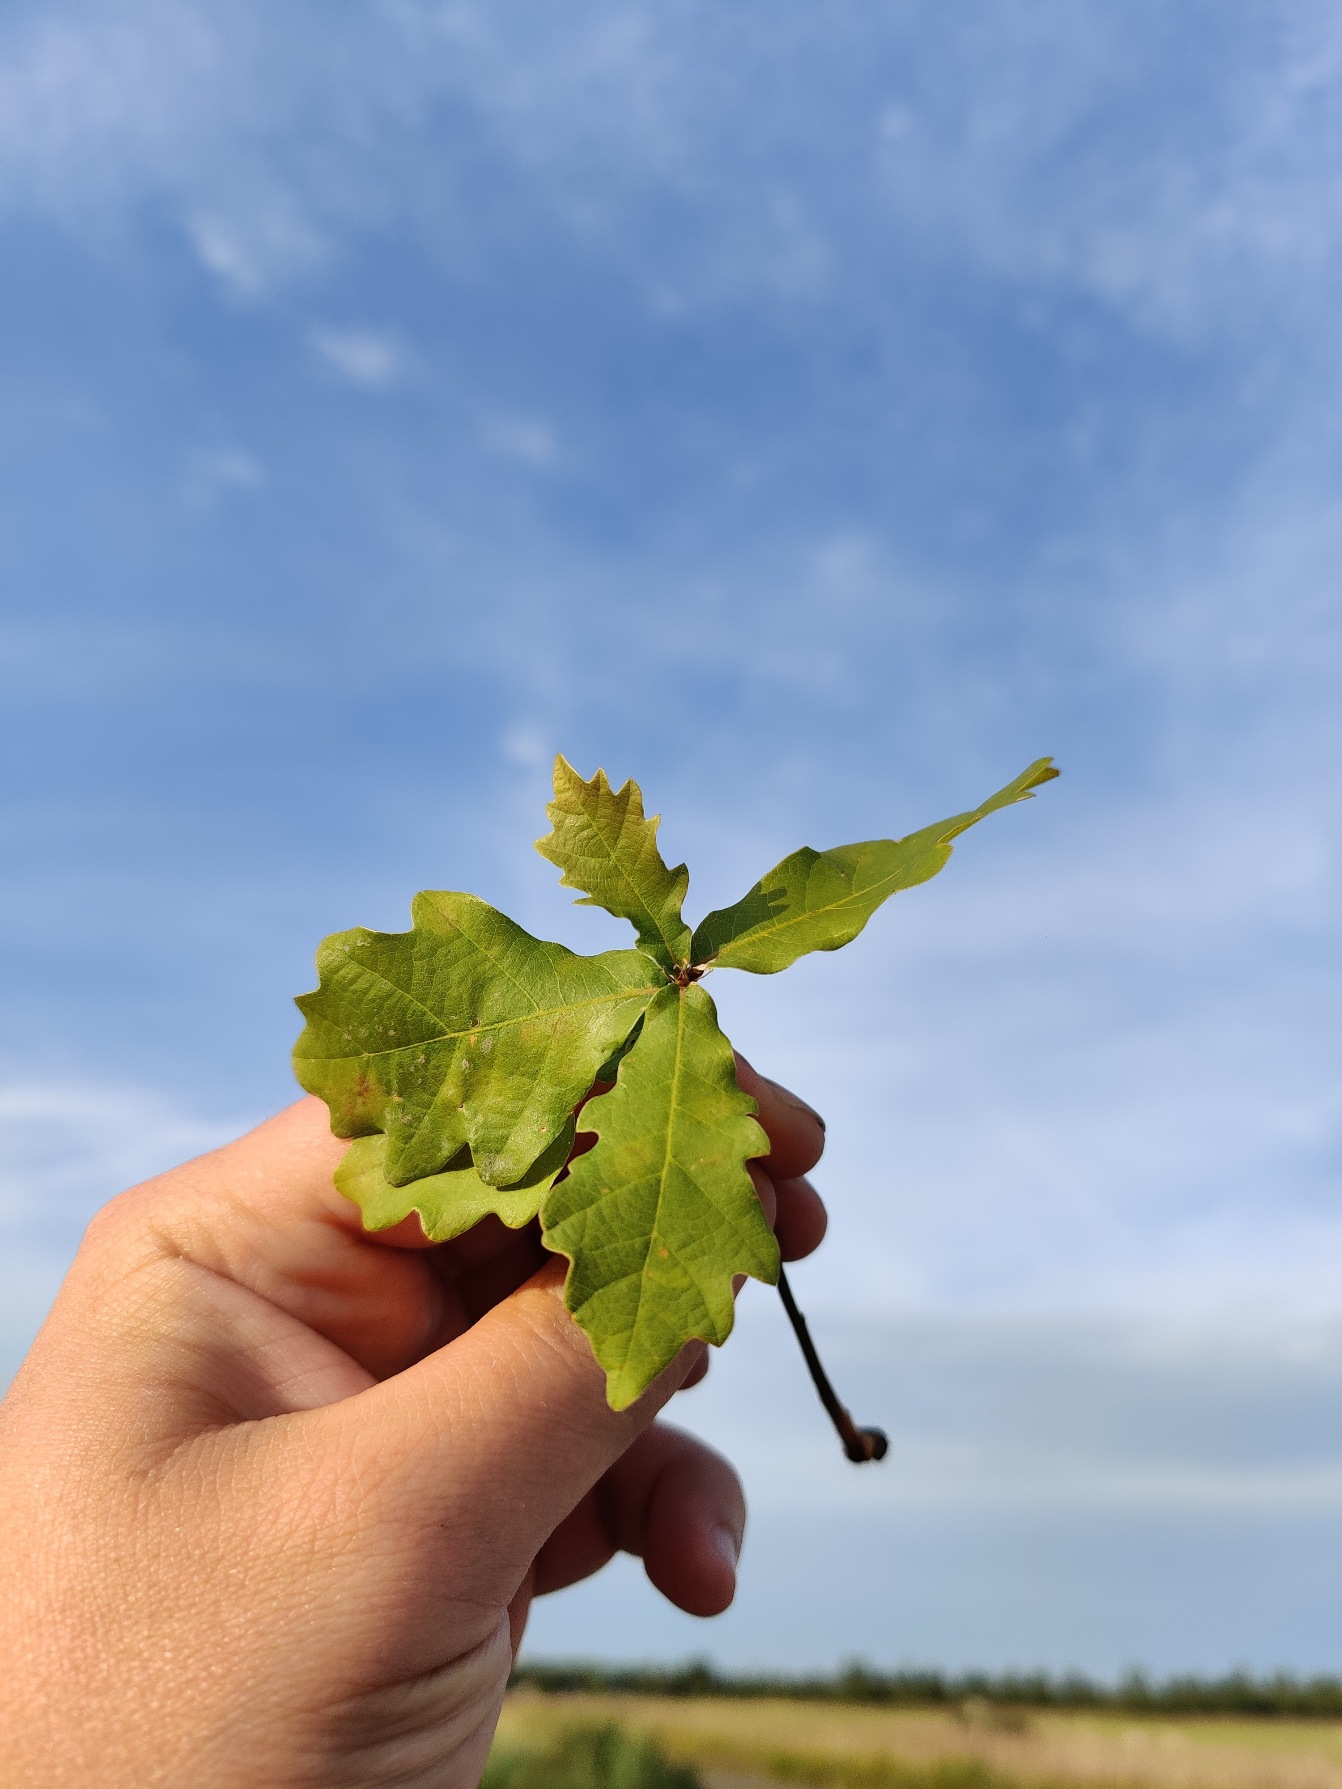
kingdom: Plantae
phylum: Tracheophyta
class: Magnoliopsida
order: Fagales
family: Fagaceae
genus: Quercus
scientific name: Quercus
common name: Egeslægten
